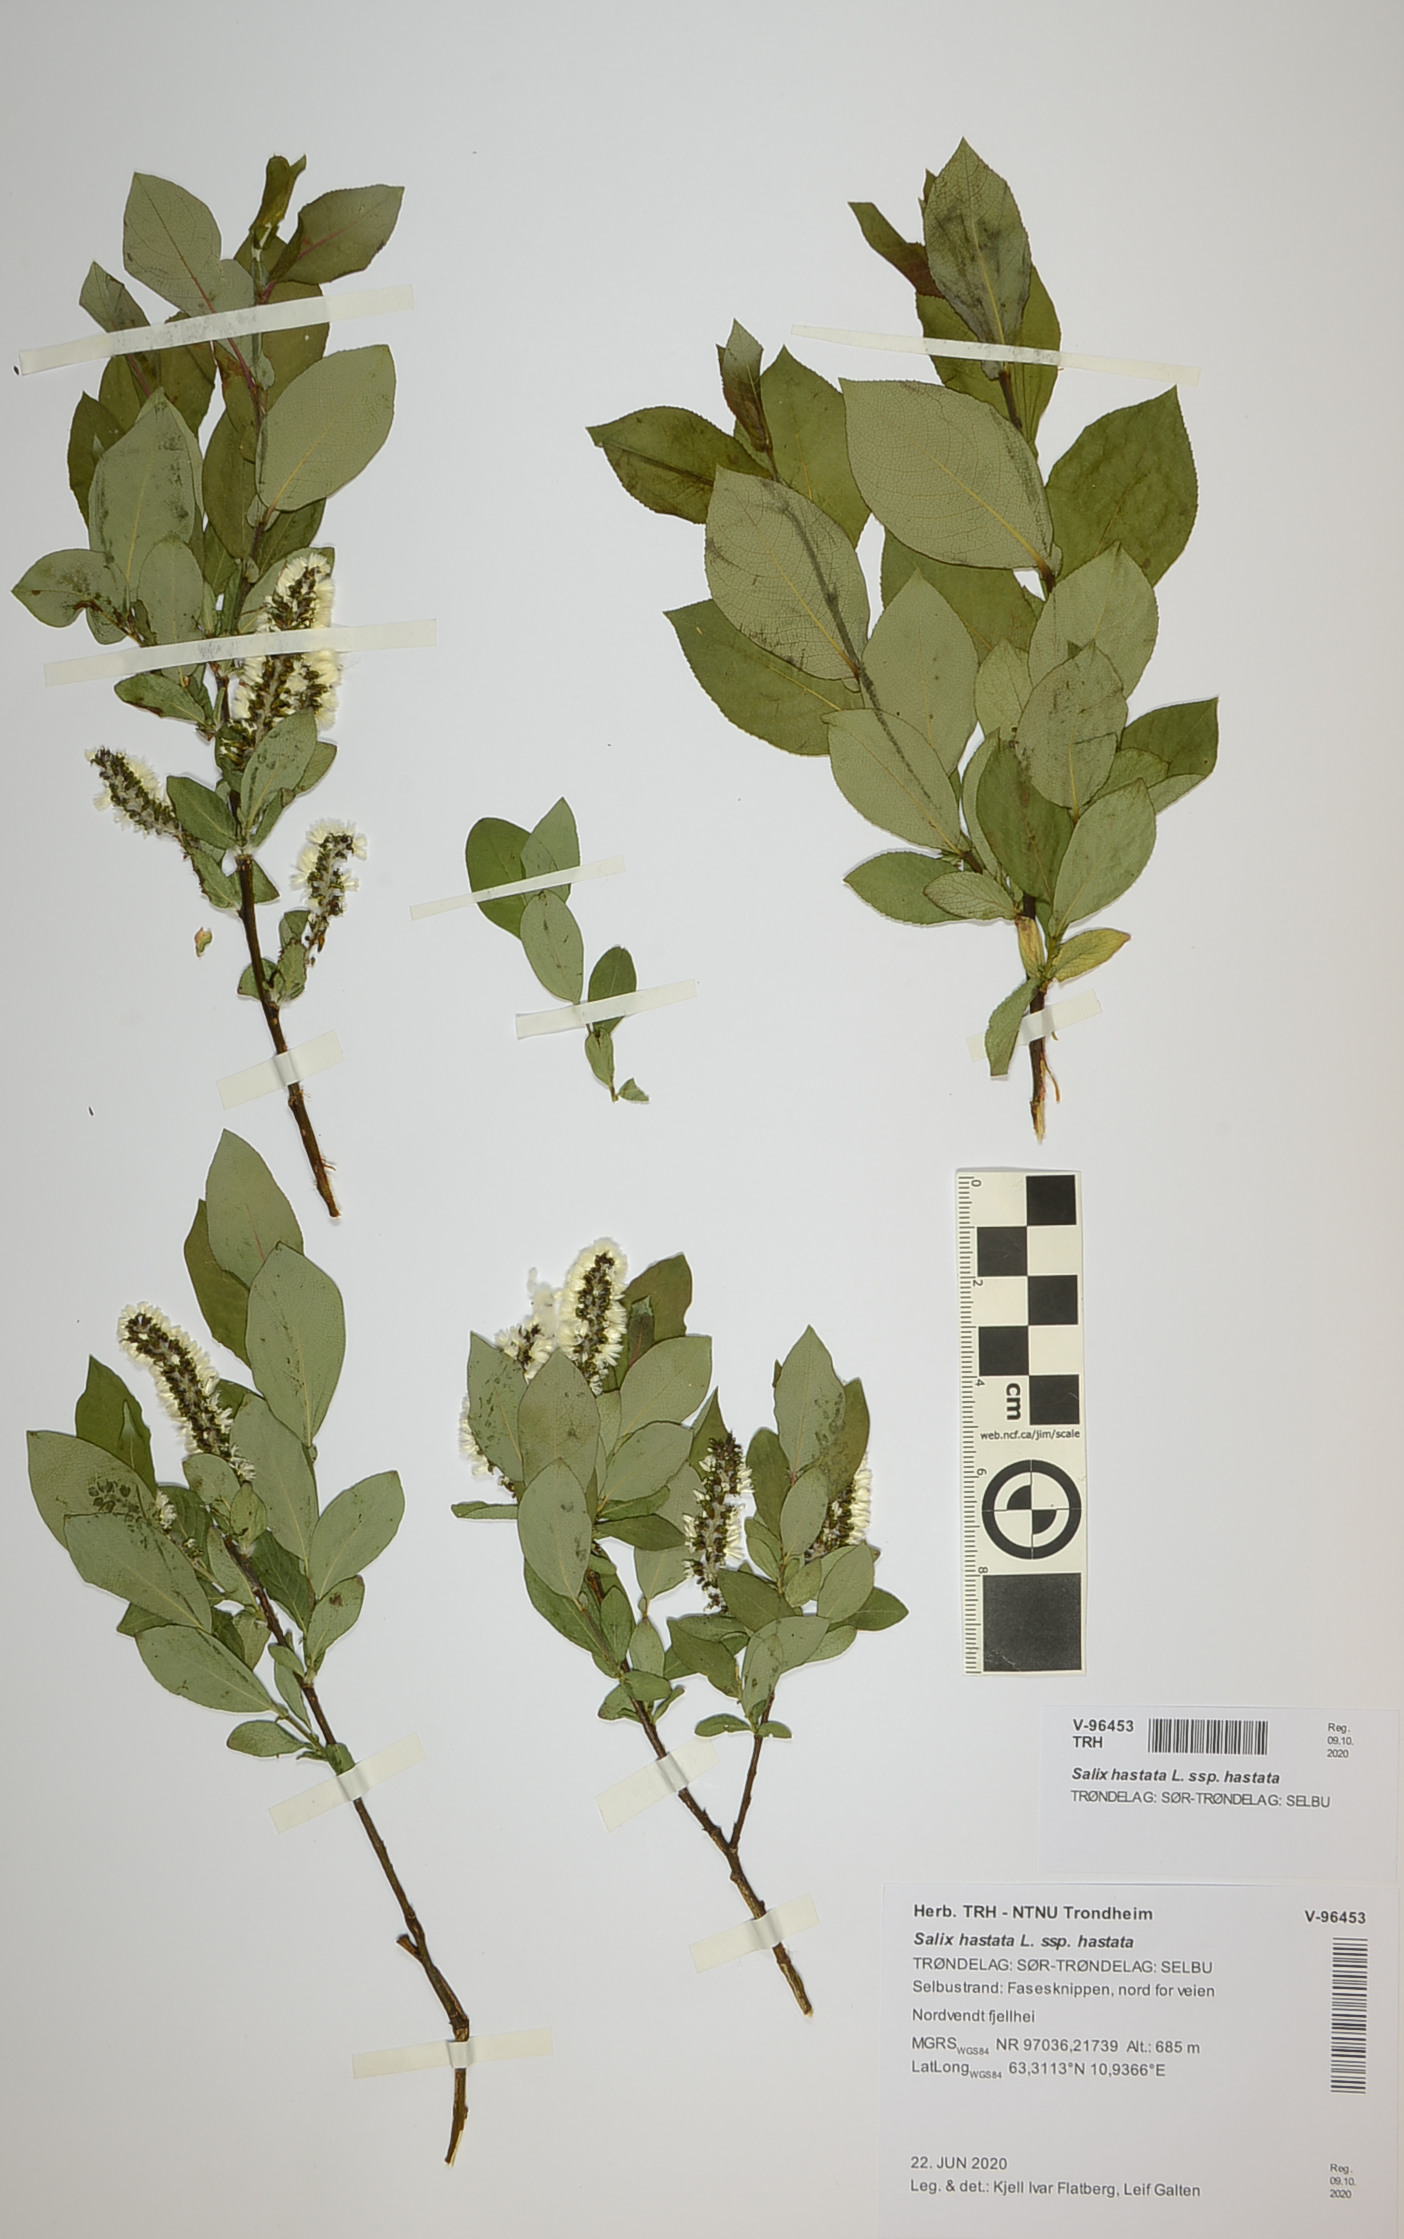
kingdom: Plantae
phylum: Tracheophyta
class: Magnoliopsida
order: Malpighiales
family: Salicaceae
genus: Salix
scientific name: Salix hastata
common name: Halberd willow
